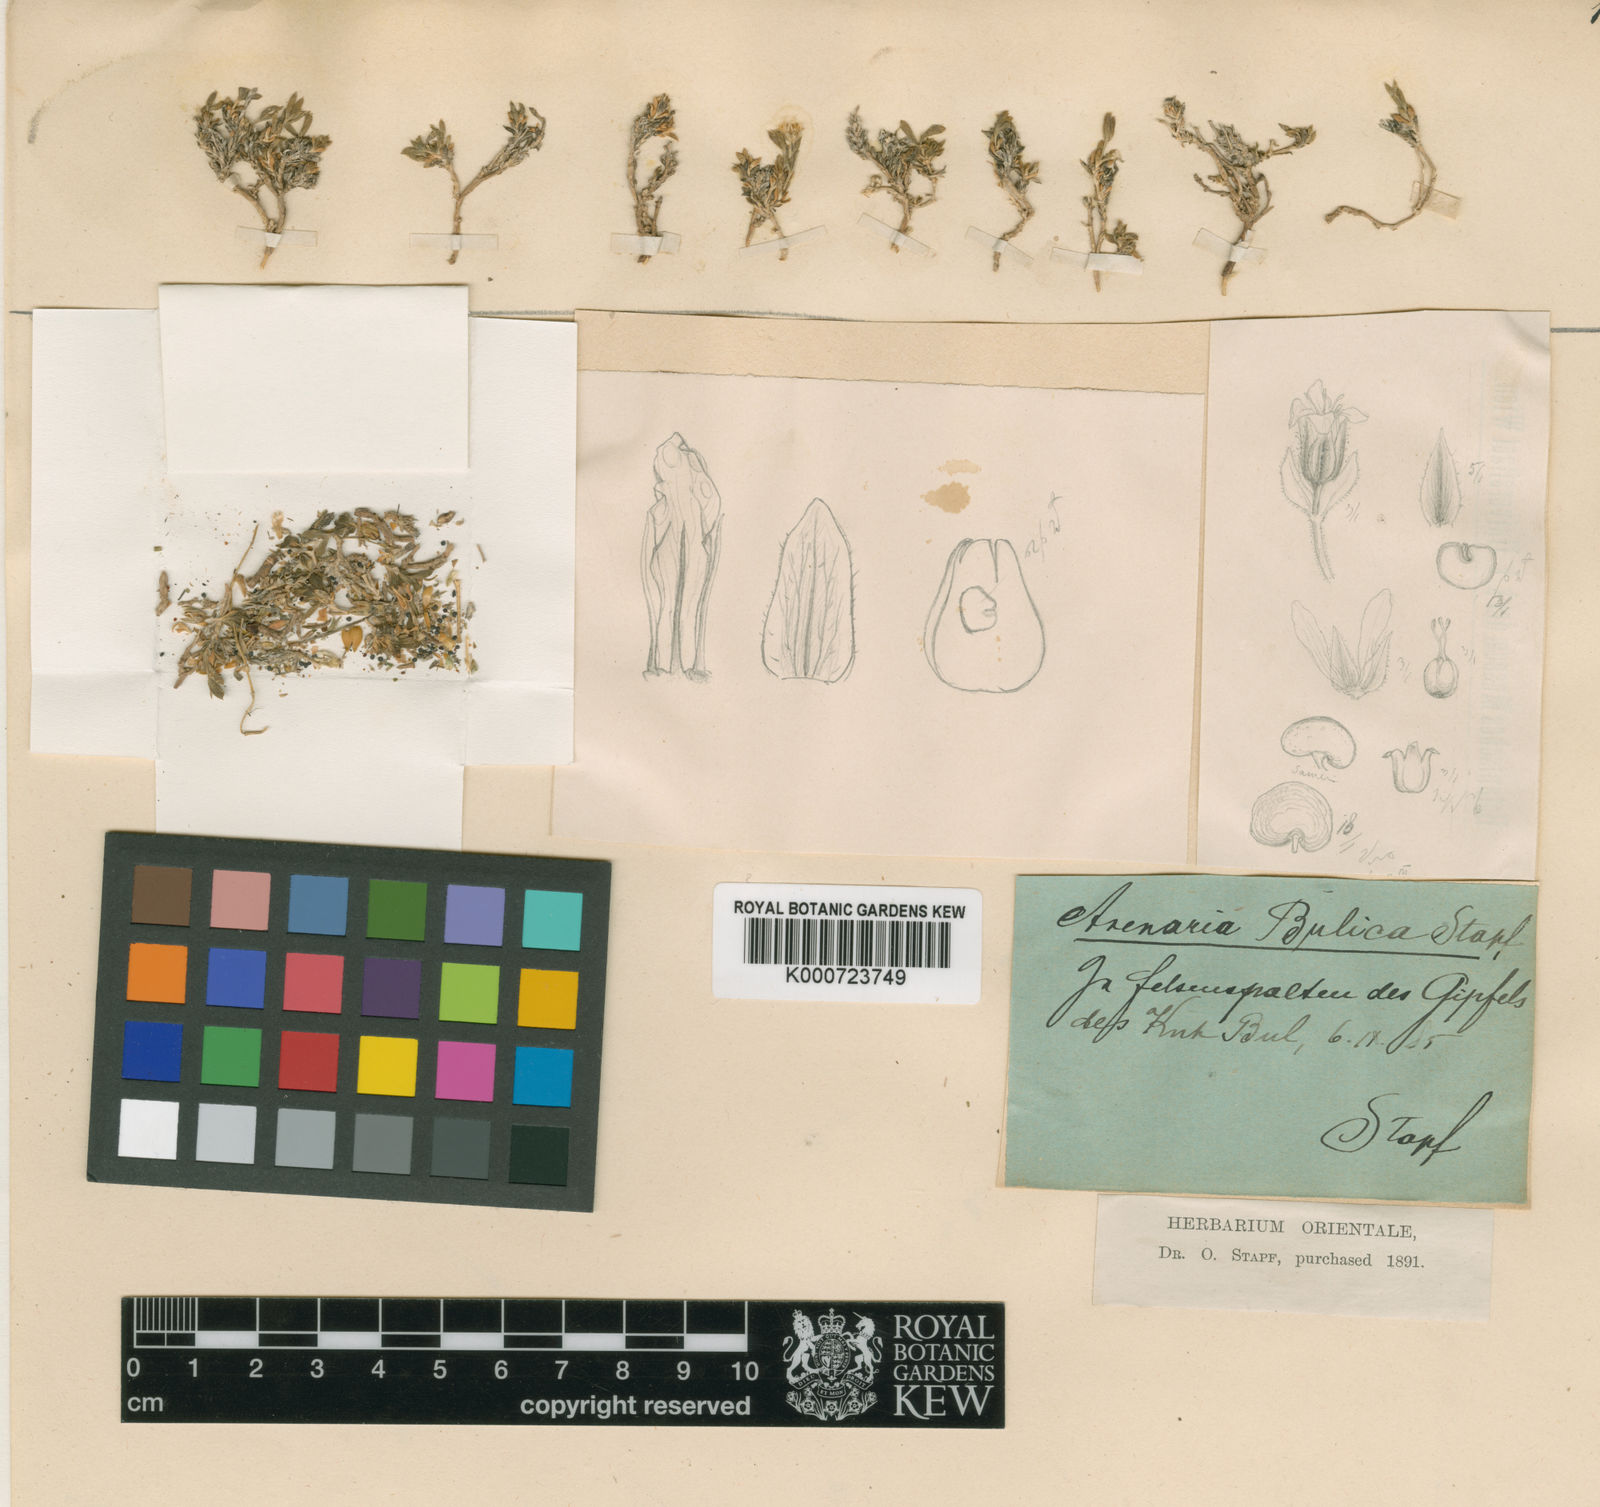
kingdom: Plantae
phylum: Tracheophyta
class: Magnoliopsida
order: Caryophyllales
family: Caryophyllaceae
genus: Arenaria
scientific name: Arenaria bulica
